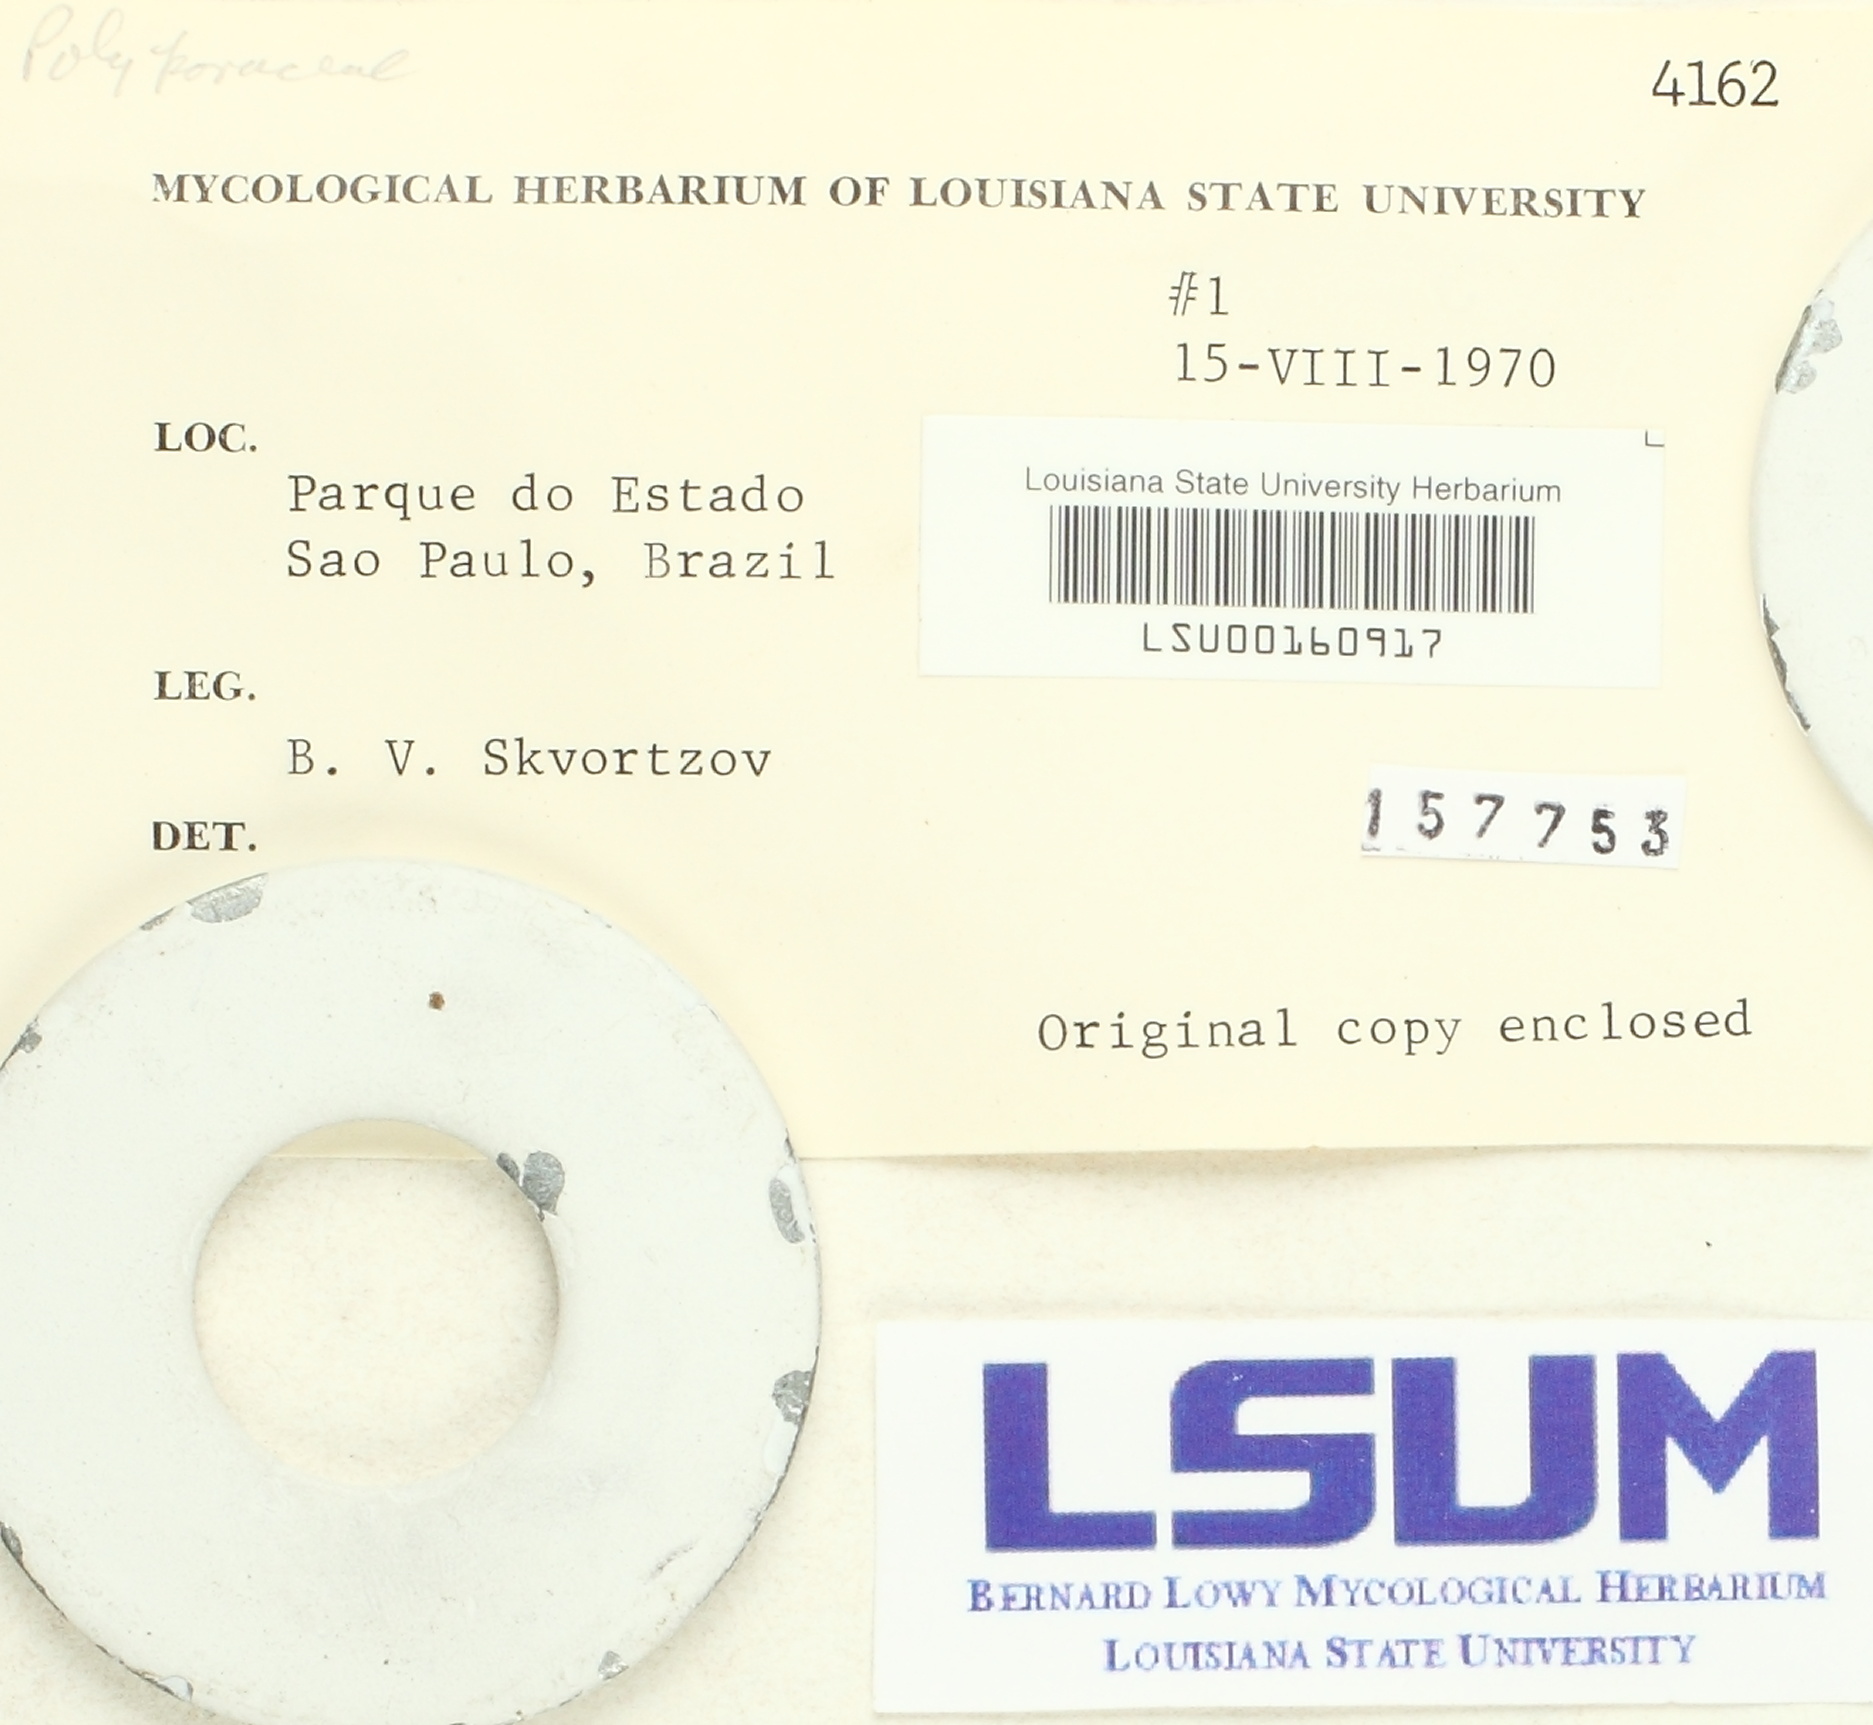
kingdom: Fungi
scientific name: Fungi
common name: Fungi
